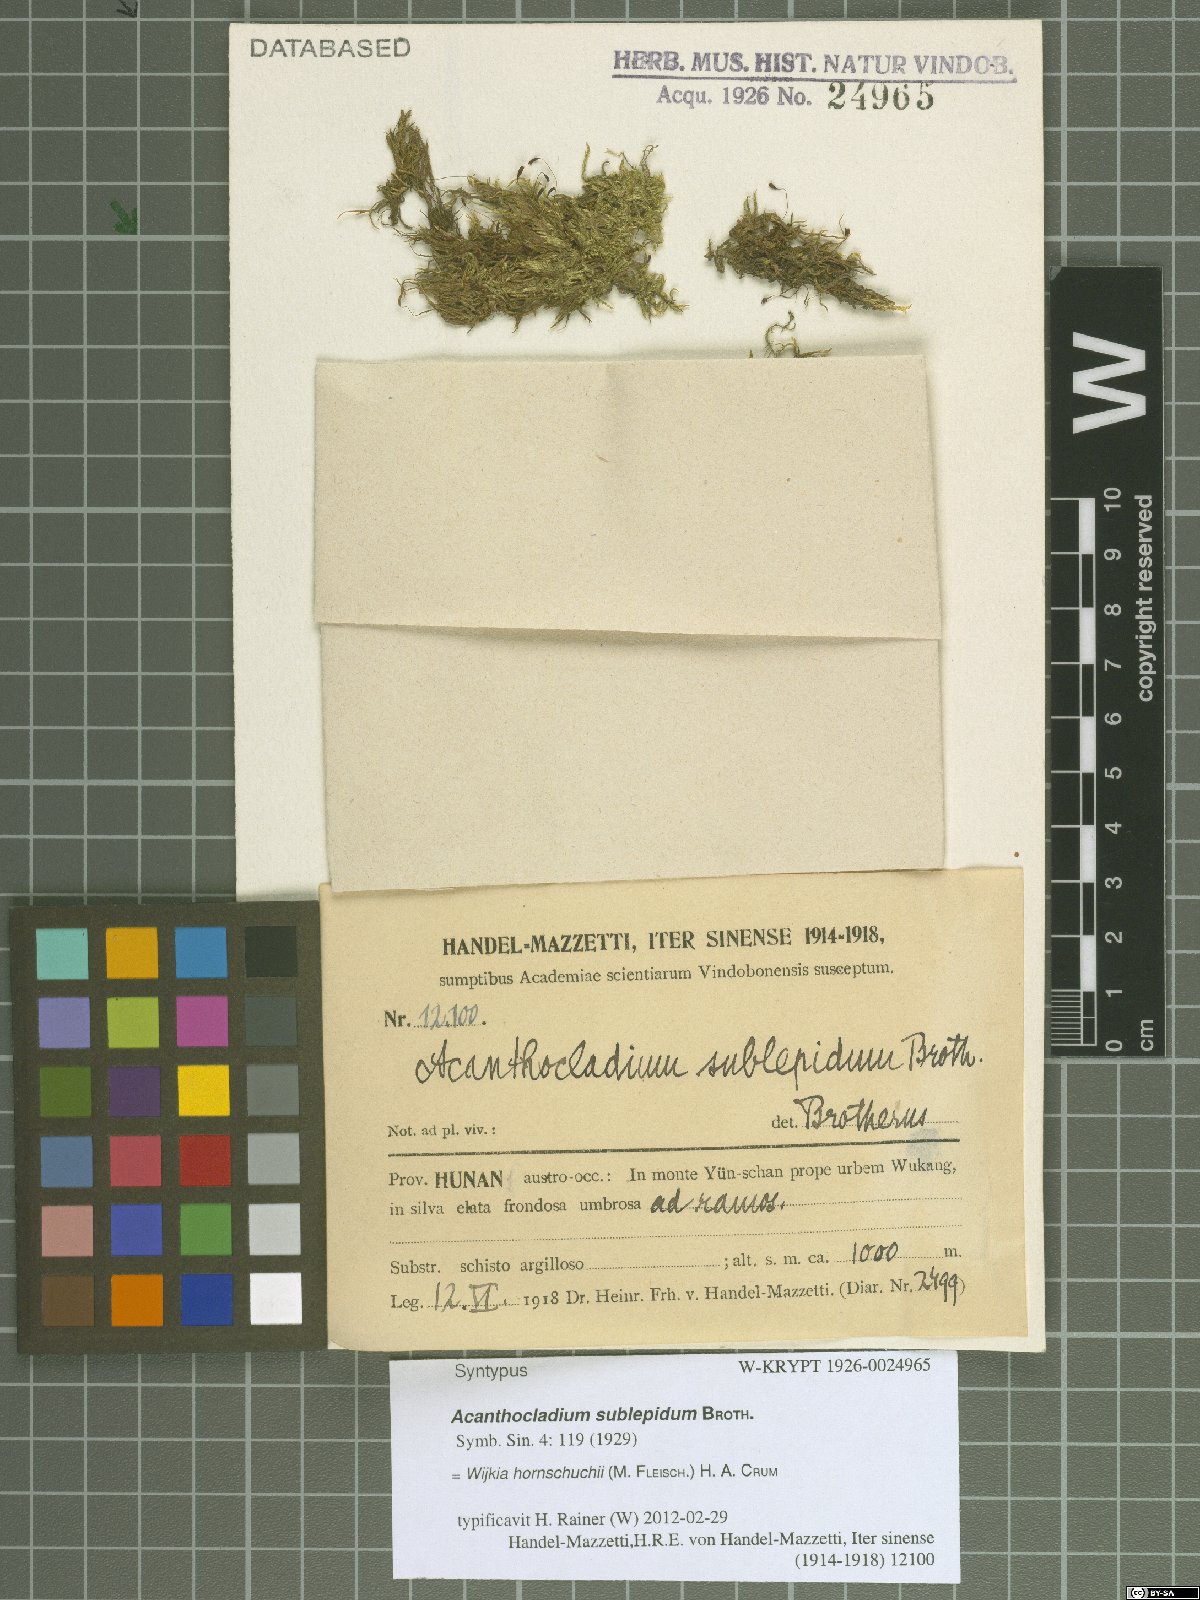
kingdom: Plantae
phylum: Bryophyta
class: Bryopsida
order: Hypnales
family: Pylaisiadelphaceae
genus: Wijkia
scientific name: Wijkia hornschuchii
